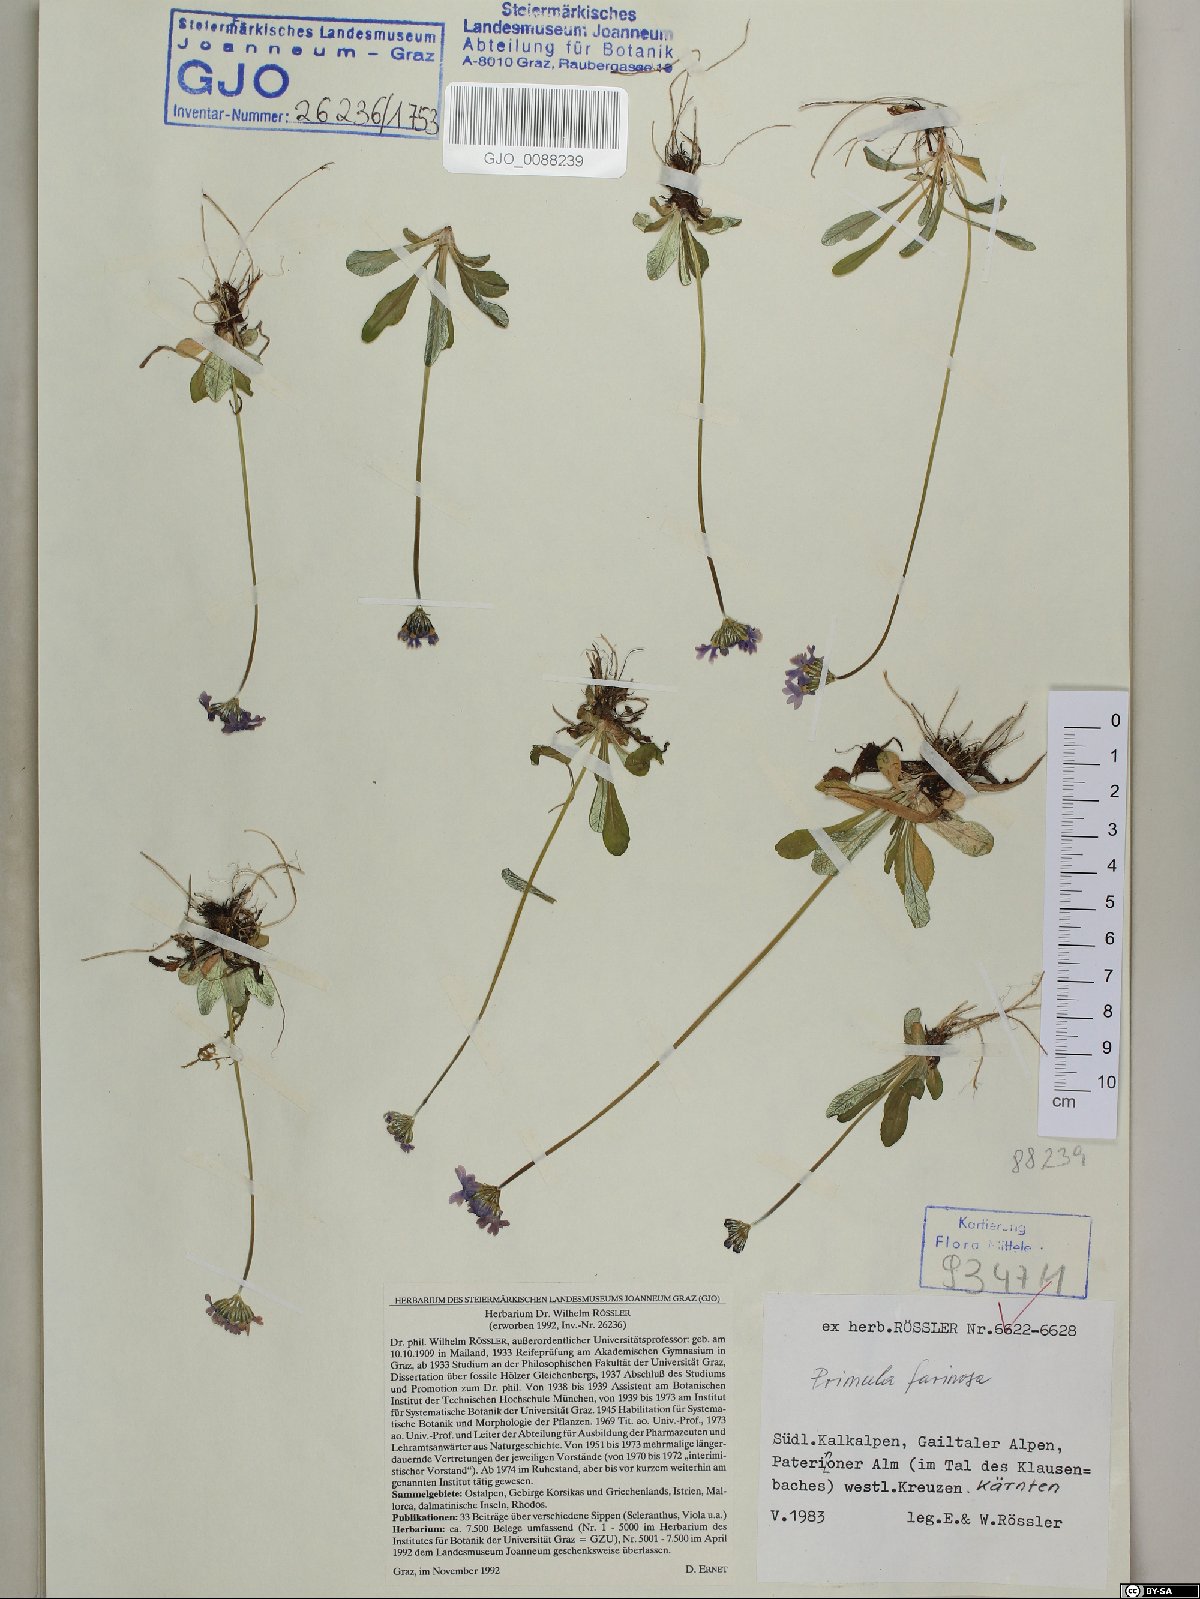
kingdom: Plantae
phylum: Tracheophyta
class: Magnoliopsida
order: Ericales
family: Primulaceae
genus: Primula
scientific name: Primula farinosa
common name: Bird's-eye primrose
